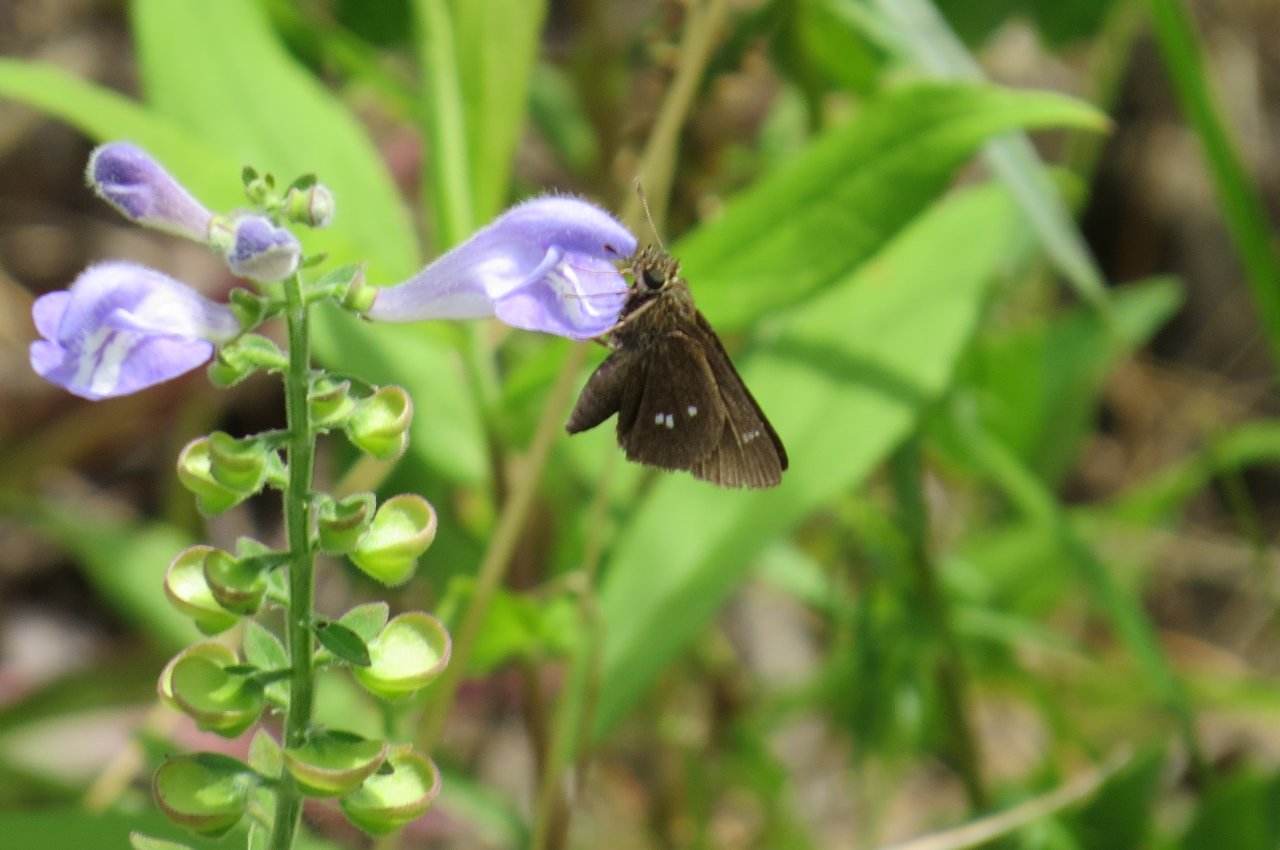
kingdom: Animalia
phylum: Arthropoda
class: Insecta
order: Lepidoptera
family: Hesperiidae
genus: Oligoria
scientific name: Oligoria maculata
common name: Twin-spot Skipper
